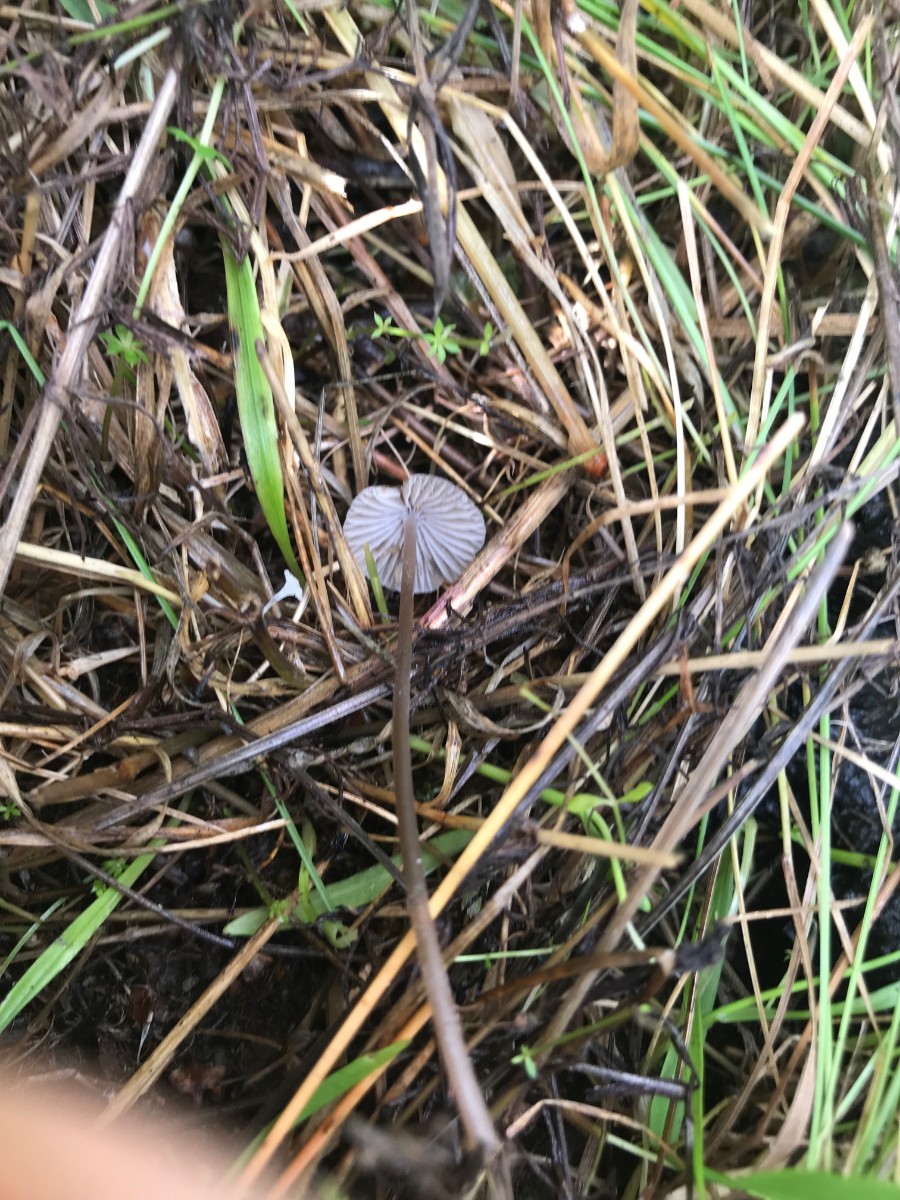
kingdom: Fungi
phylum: Basidiomycota
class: Agaricomycetes
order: Agaricales
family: Mycenaceae
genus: Mycena
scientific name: Mycena leptocephala
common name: klor-huesvamp
